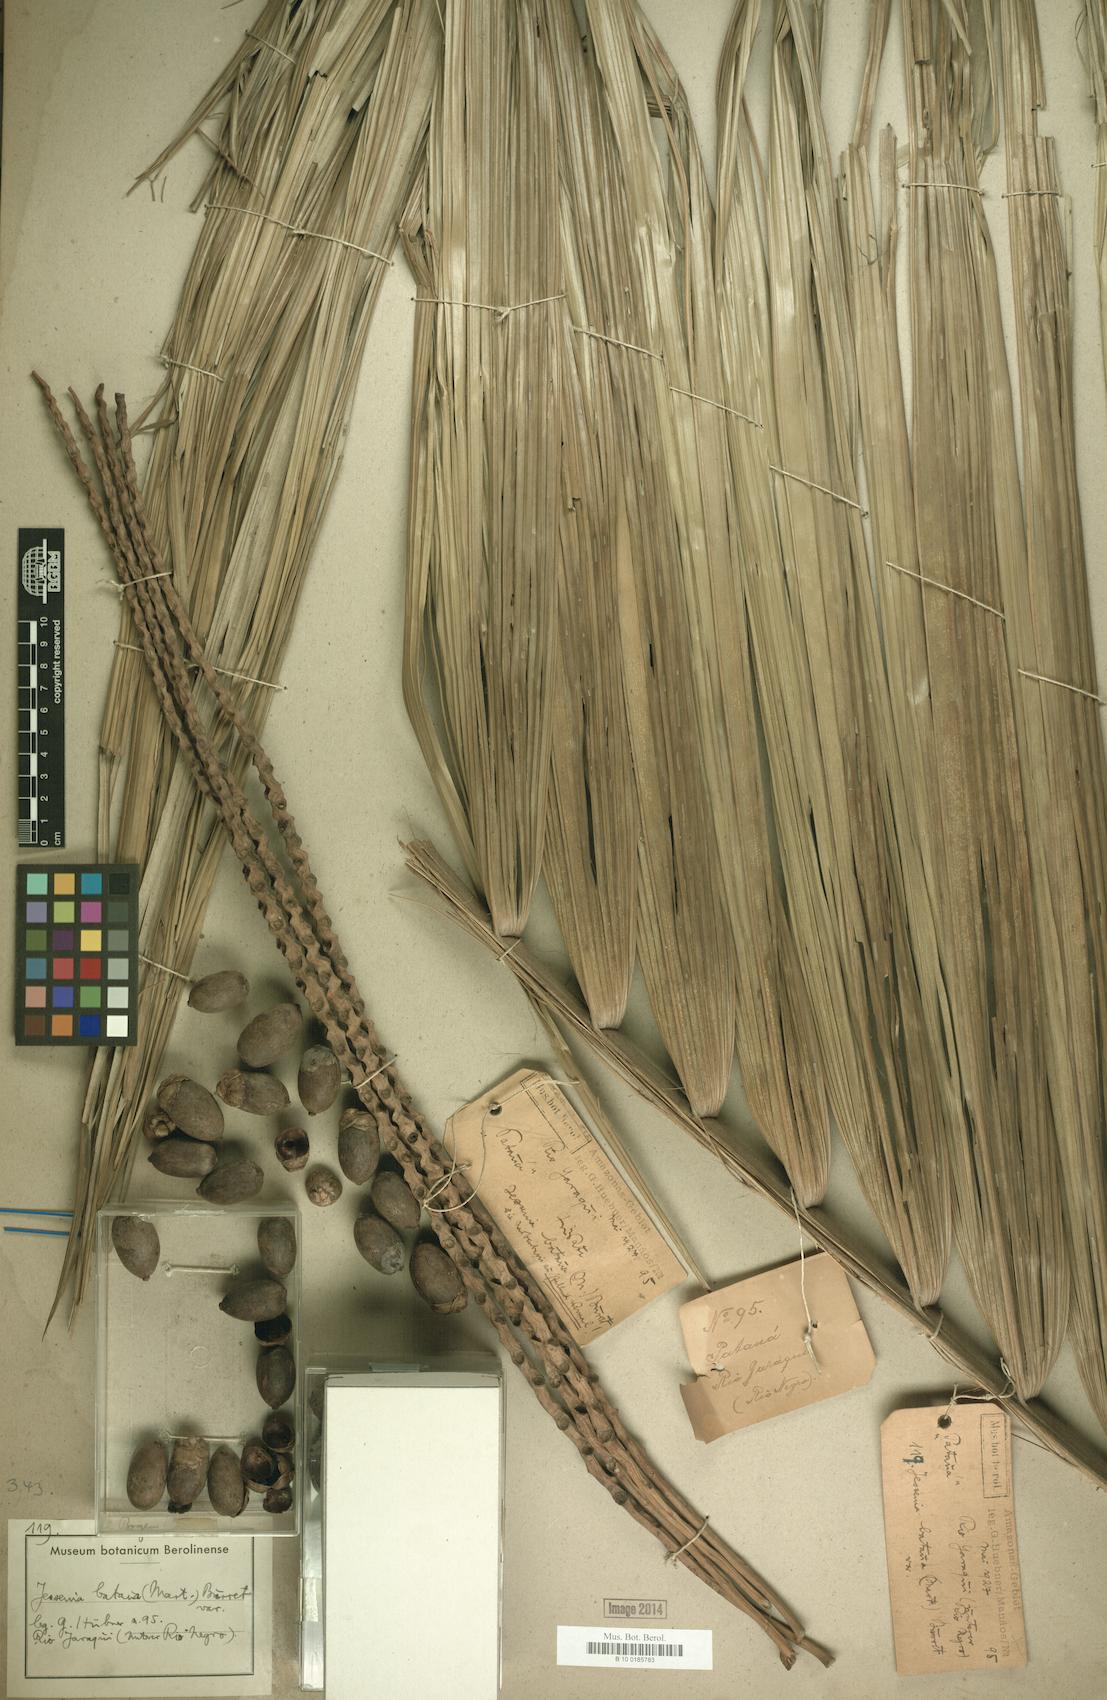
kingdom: Plantae
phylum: Tracheophyta
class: Liliopsida
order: Arecales
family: Arecaceae
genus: Oenocarpus
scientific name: Oenocarpus bataua
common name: Bataua palm
